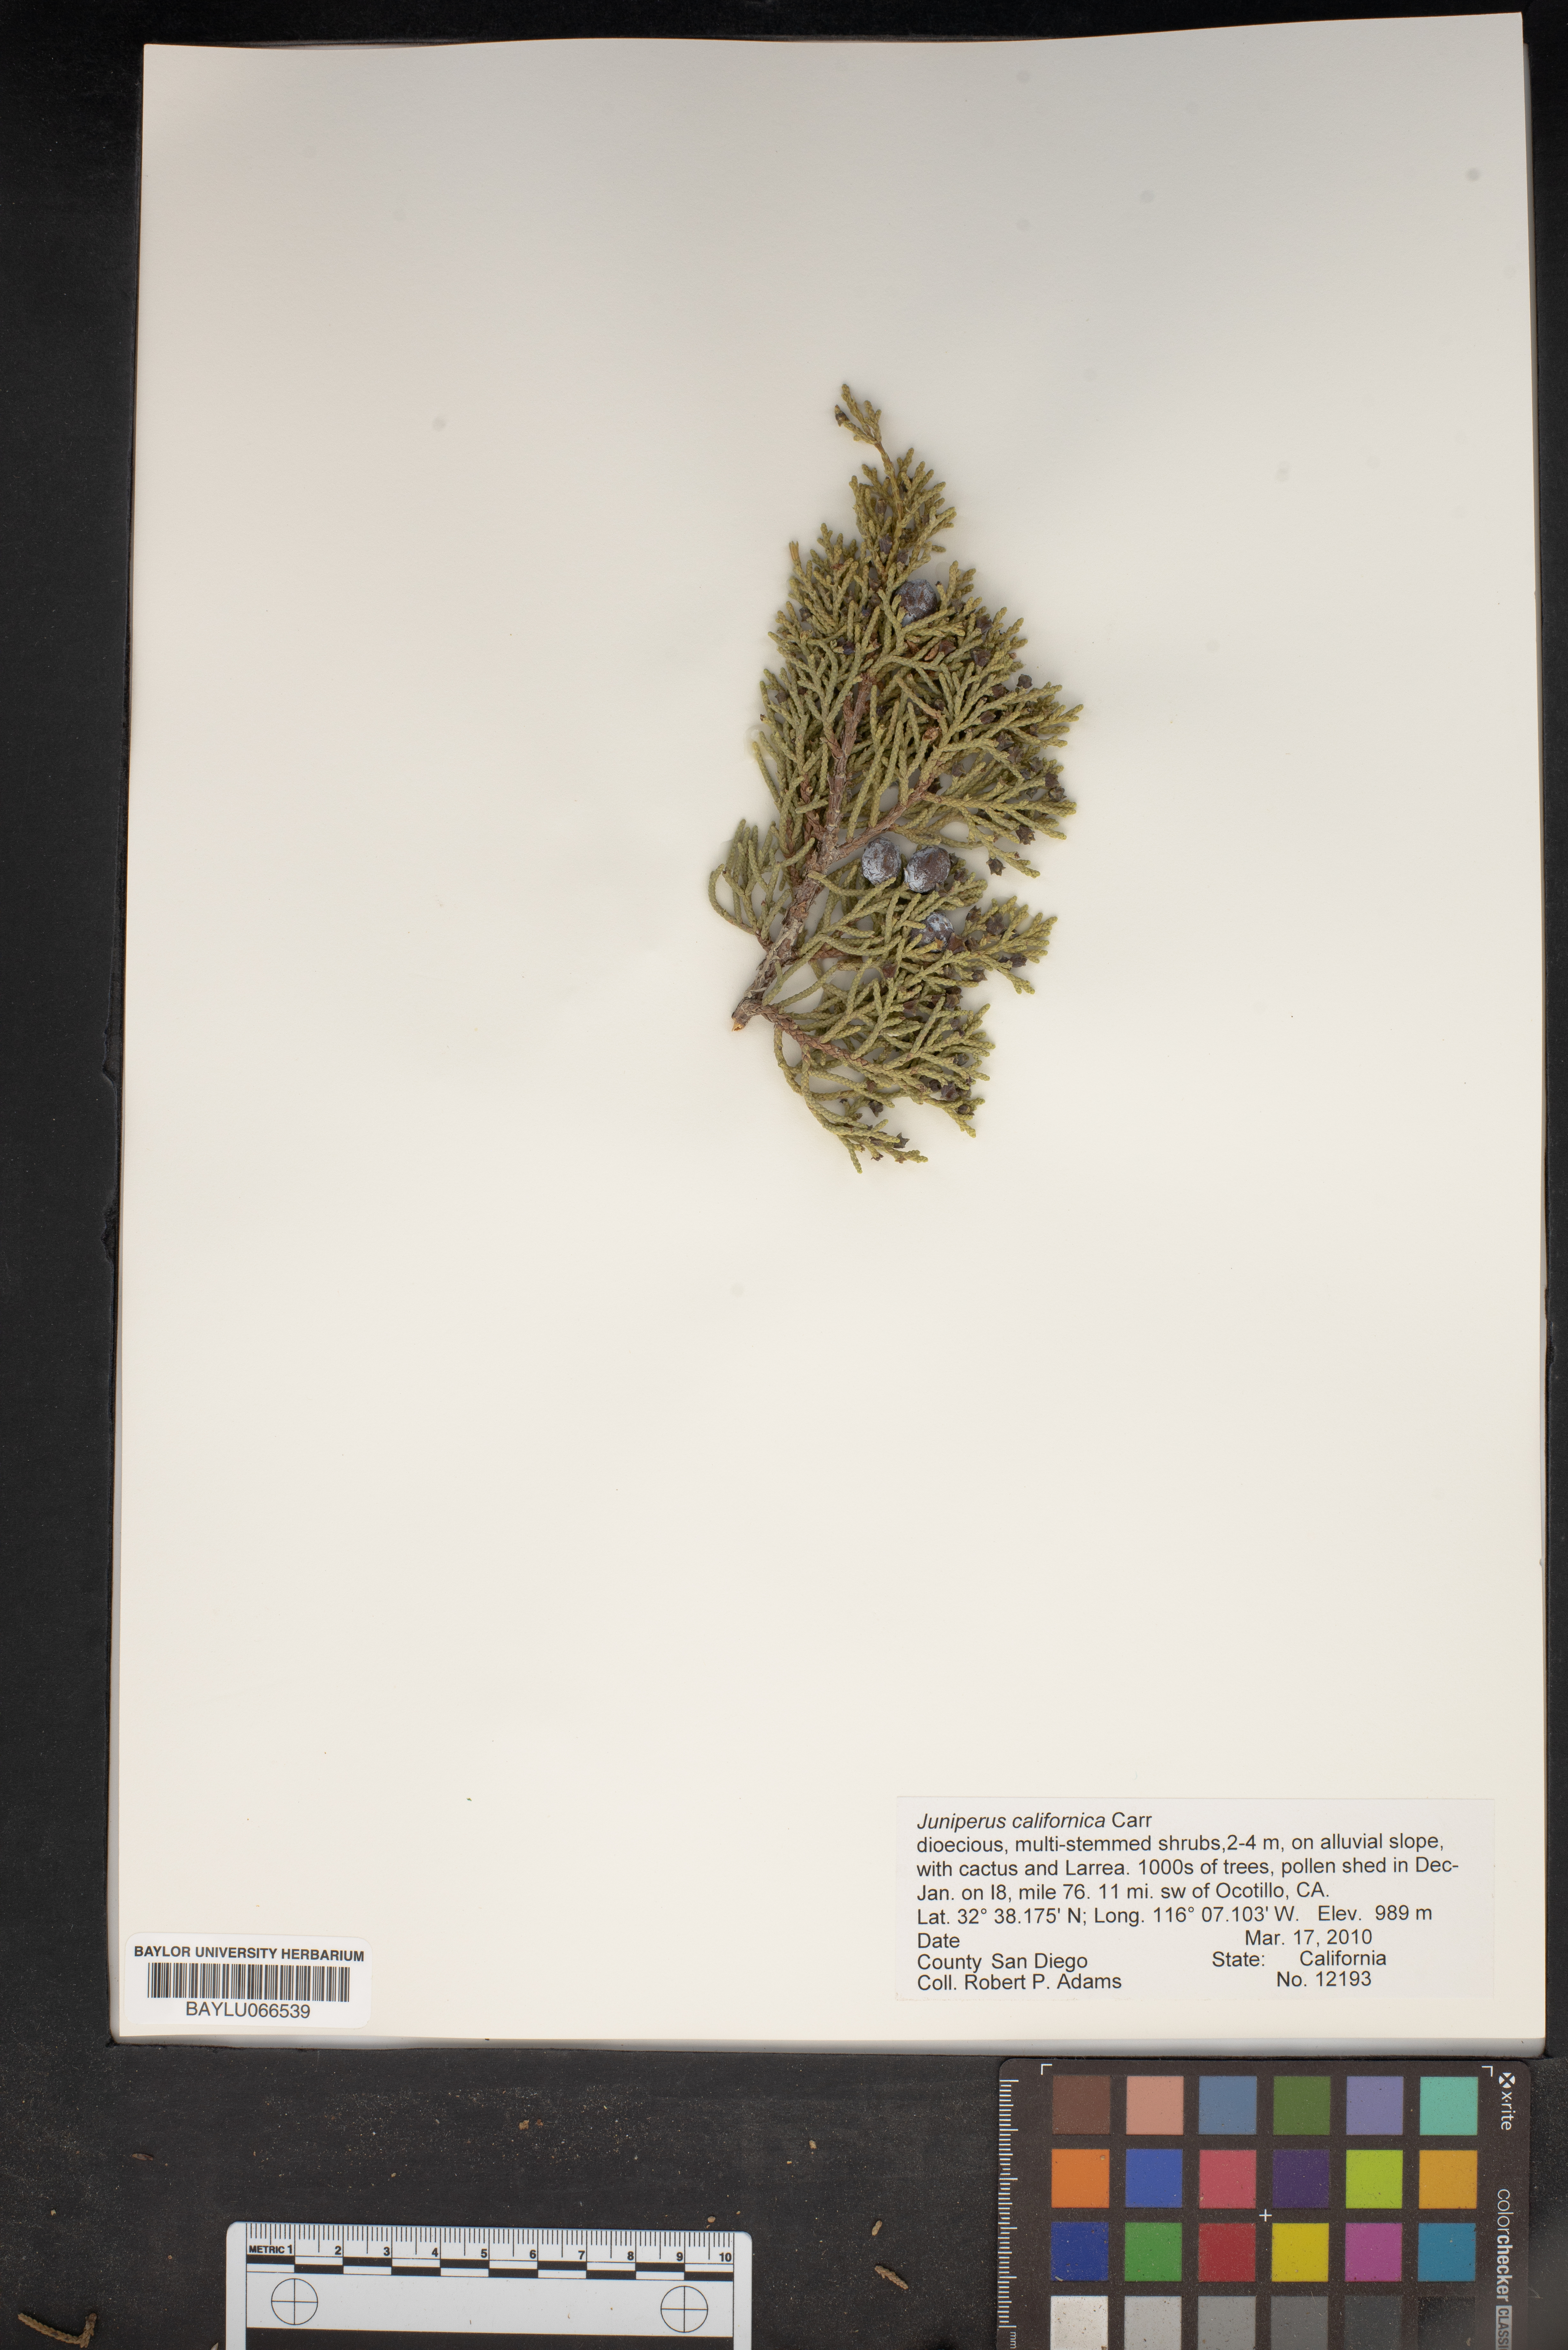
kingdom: Plantae
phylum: Tracheophyta
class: Pinopsida
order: Pinales
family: Cupressaceae
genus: Juniperus
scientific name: Juniperus californica
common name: California juniper
